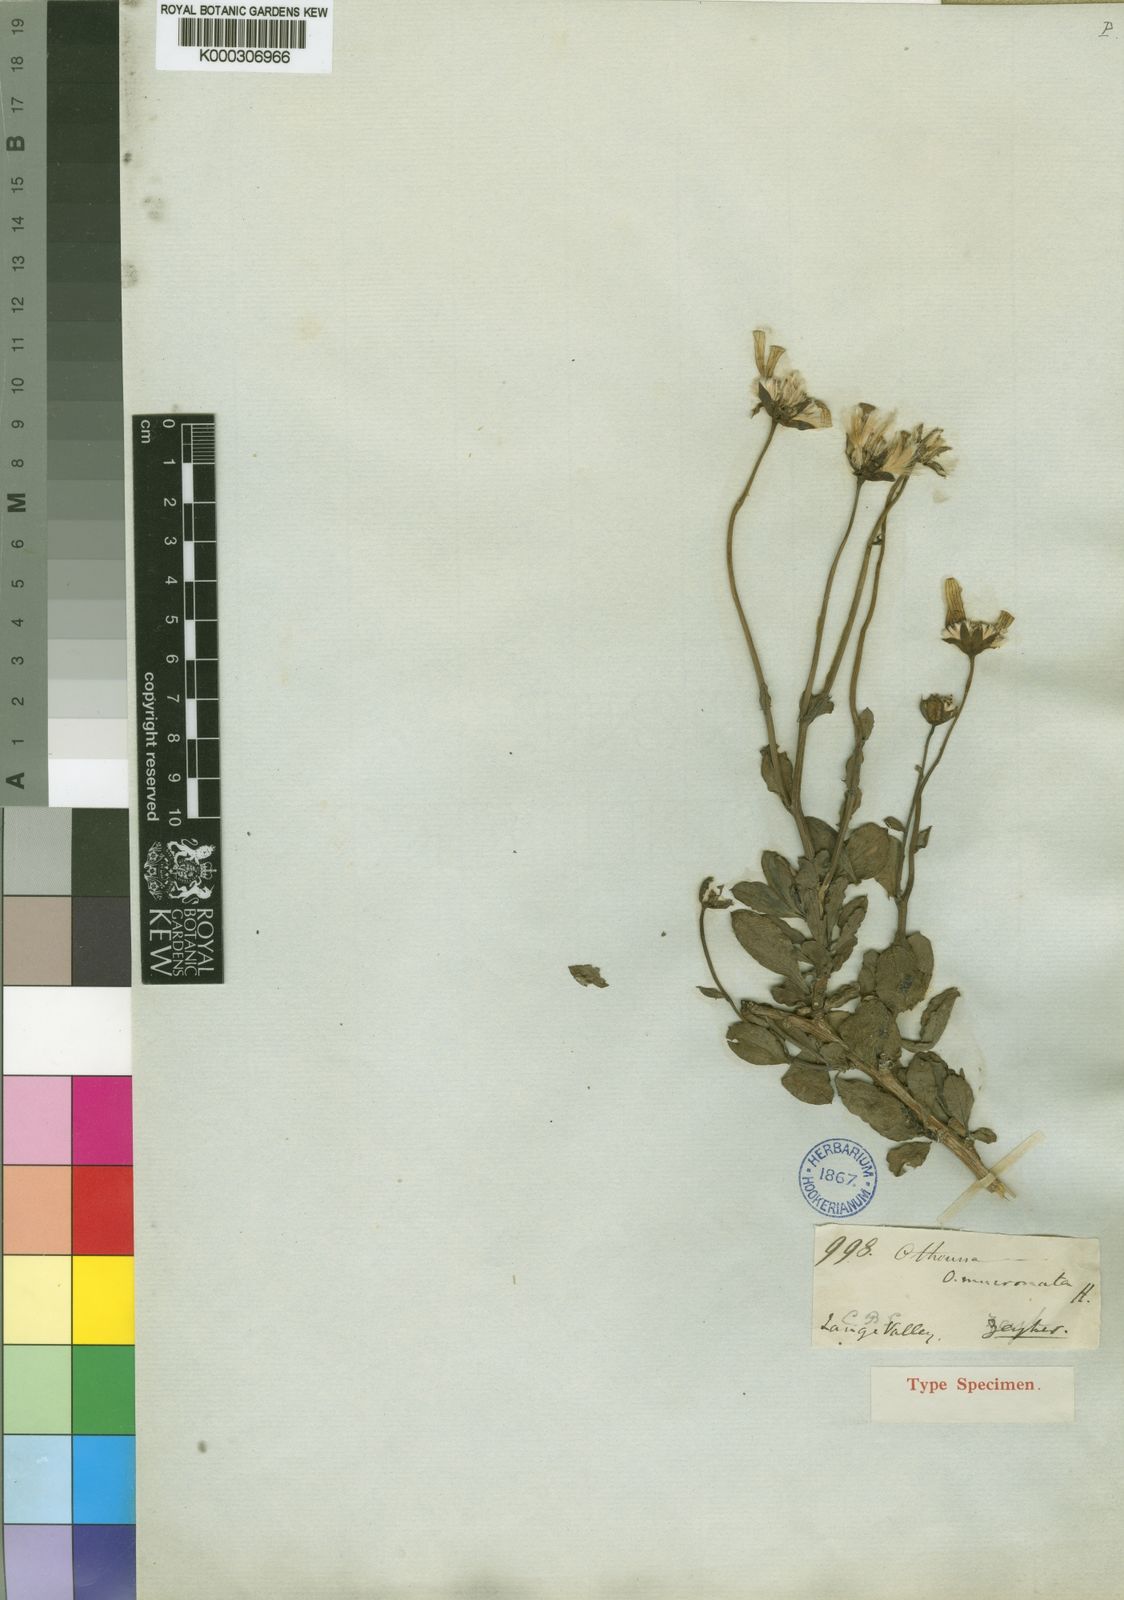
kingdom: Plantae
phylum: Tracheophyta
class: Magnoliopsida
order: Asterales
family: Asteraceae
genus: Othonna
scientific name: Othonna mucronata
